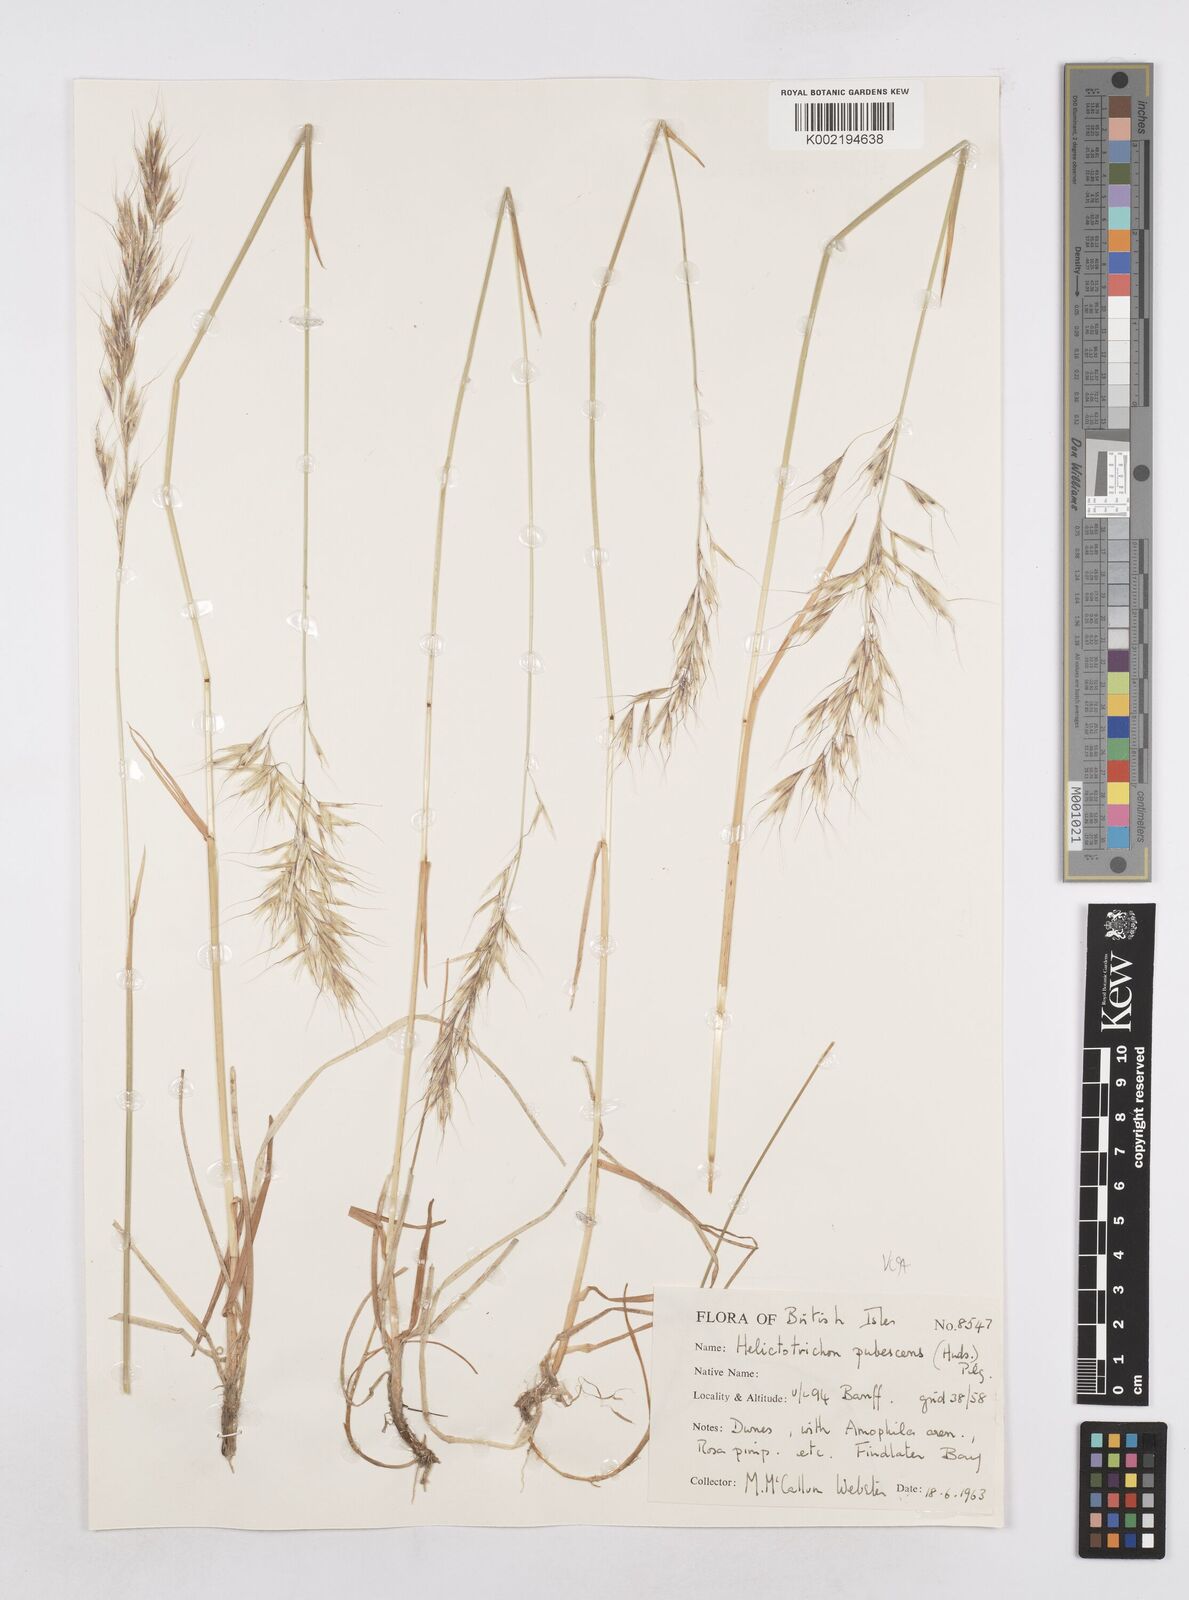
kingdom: Plantae
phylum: Tracheophyta
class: Liliopsida
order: Poales
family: Poaceae
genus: Avenula
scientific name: Avenula pubescens
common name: Downy alpine oatgrass
